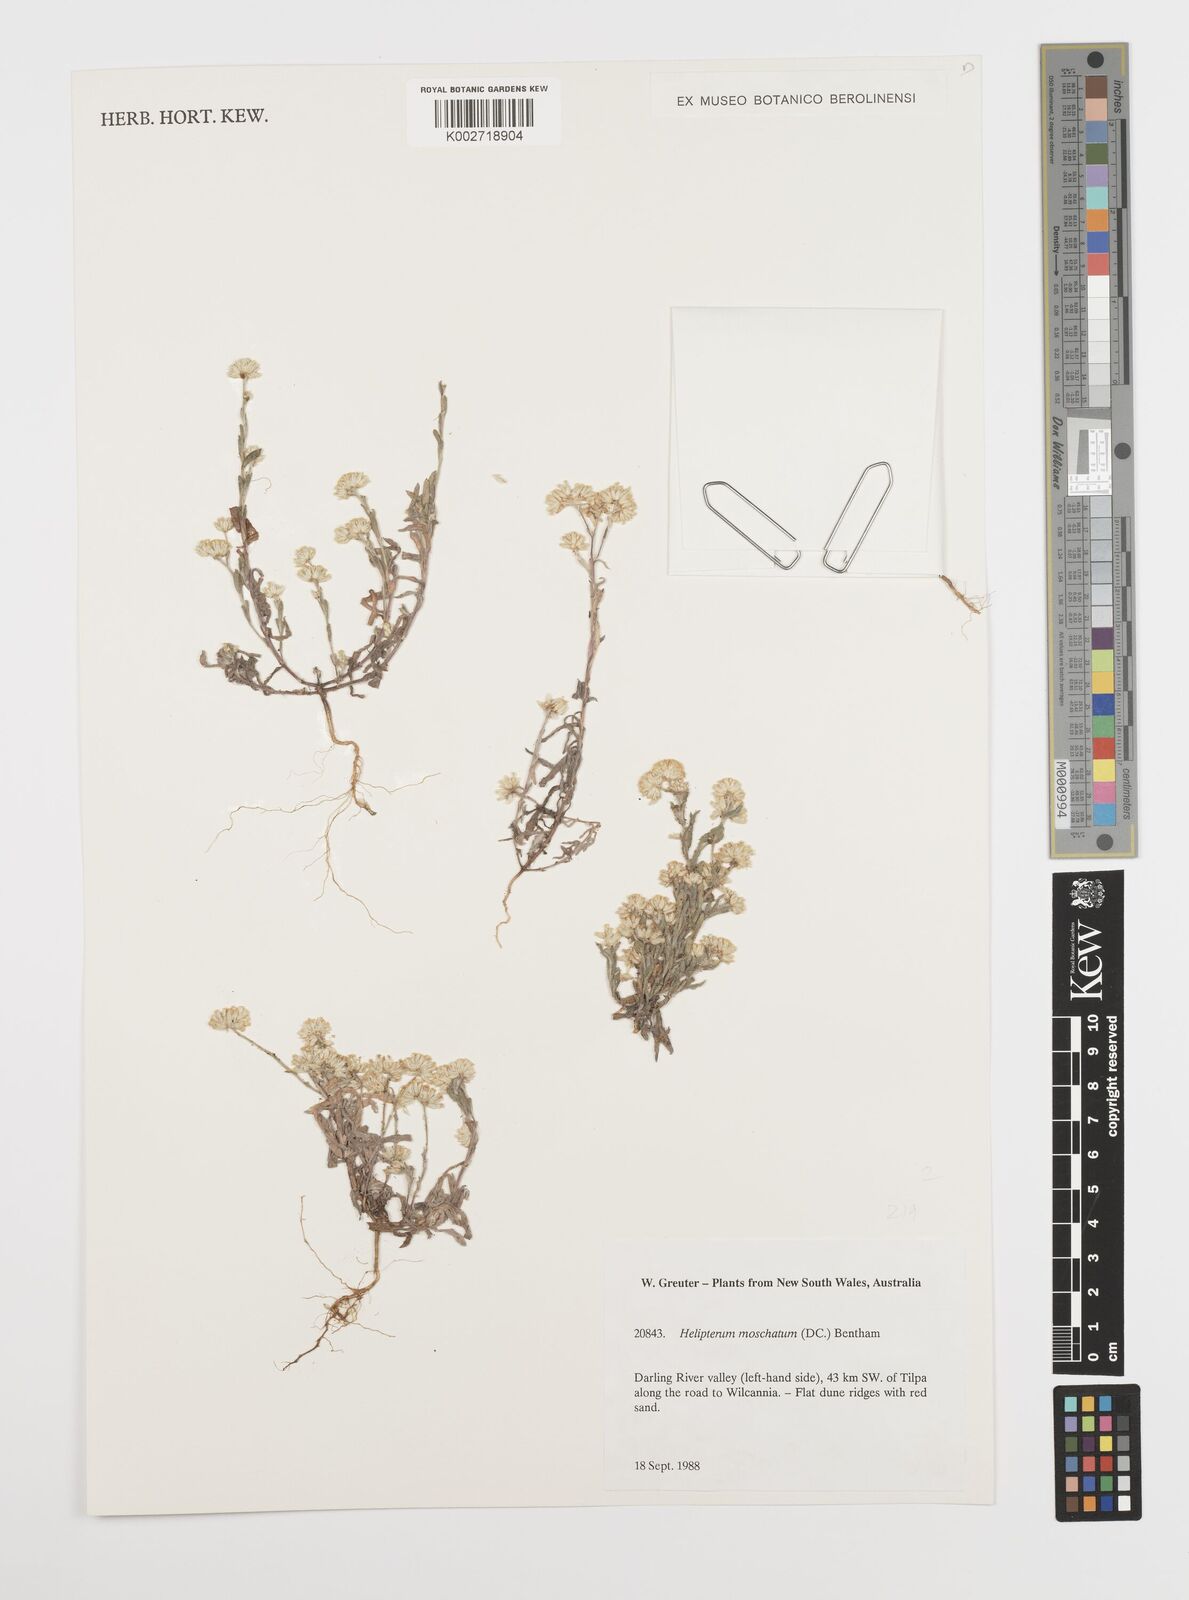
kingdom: Plantae
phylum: Tracheophyta
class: Magnoliopsida
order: Asterales
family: Asteraceae
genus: Rhodanthe
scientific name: Rhodanthe moschata
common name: Musk sunray
